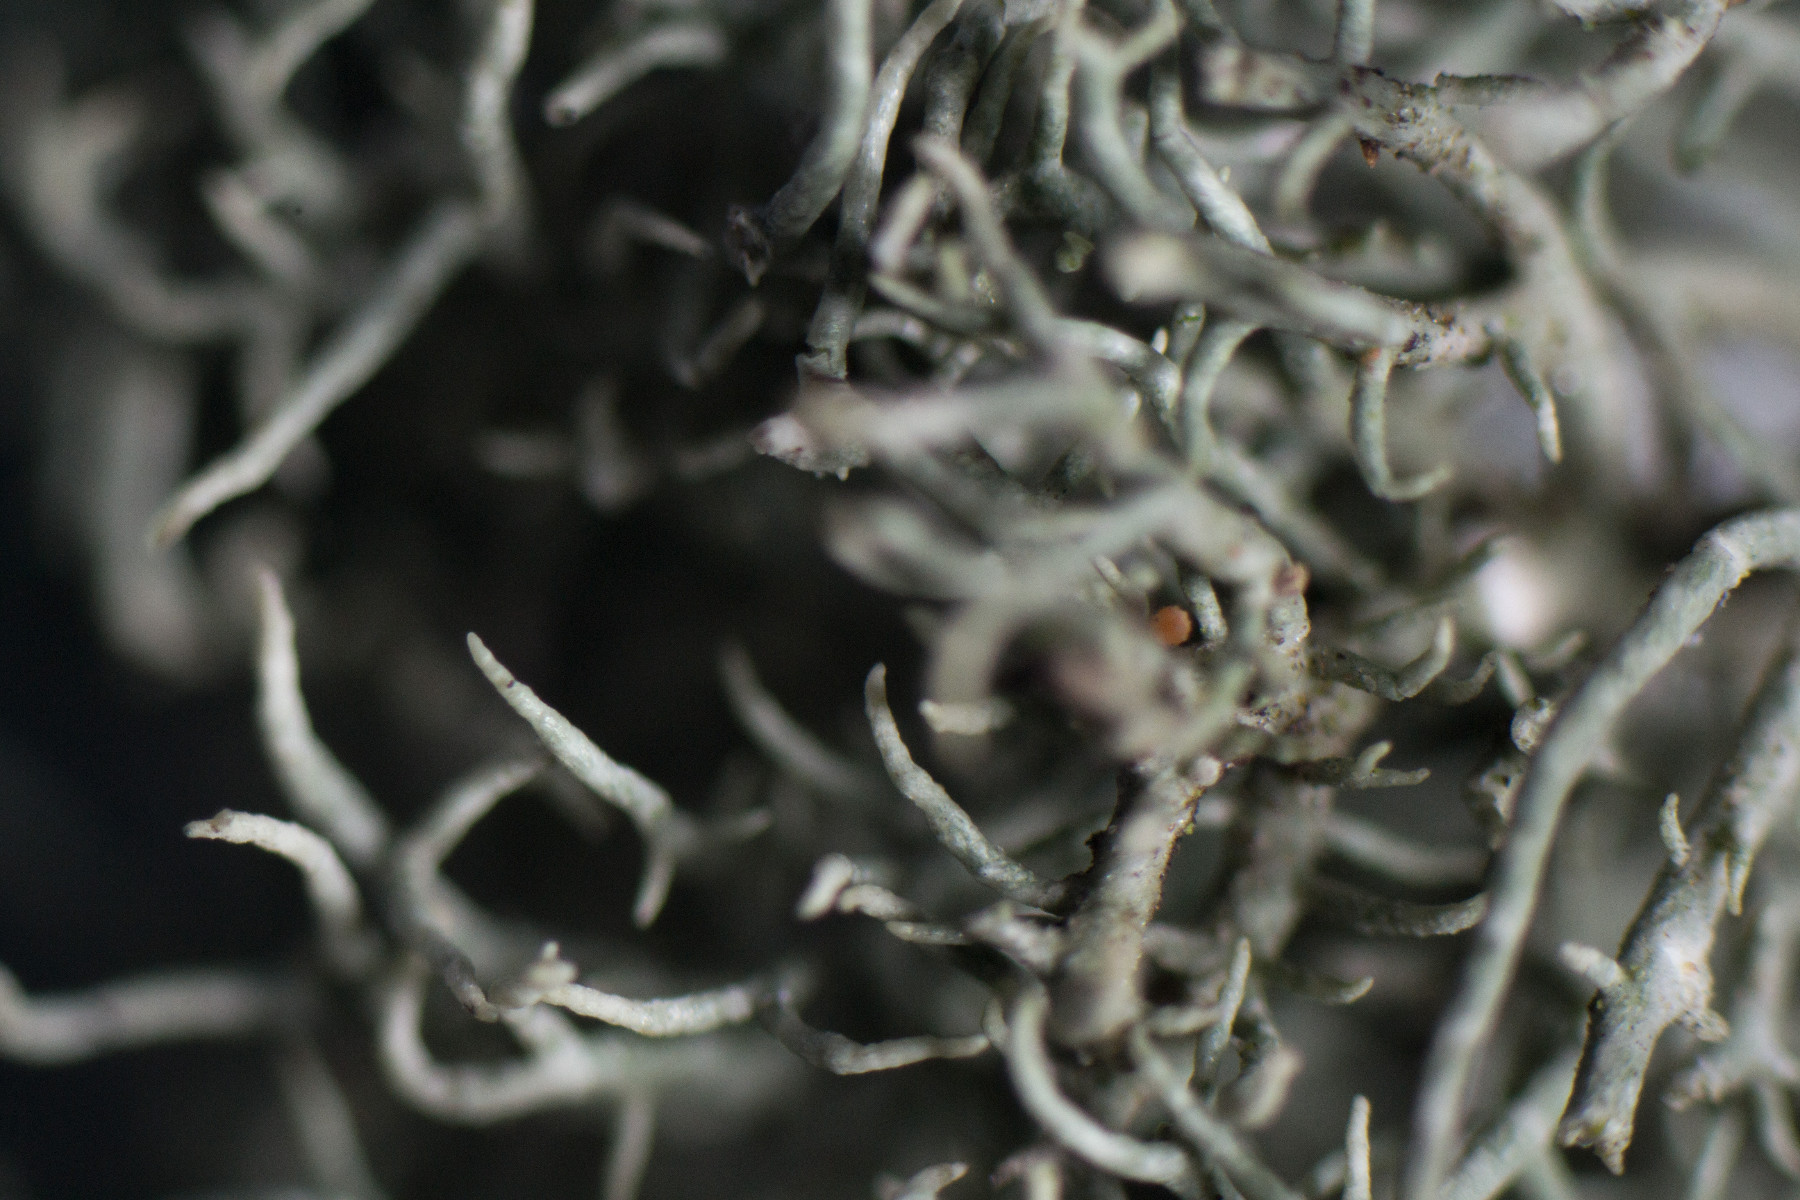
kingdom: Fungi
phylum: Ascomycota
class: Lecanoromycetes
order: Lecanorales
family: Parmeliaceae
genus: Usnea
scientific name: Usnea subfloridana
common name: busket skæglav
